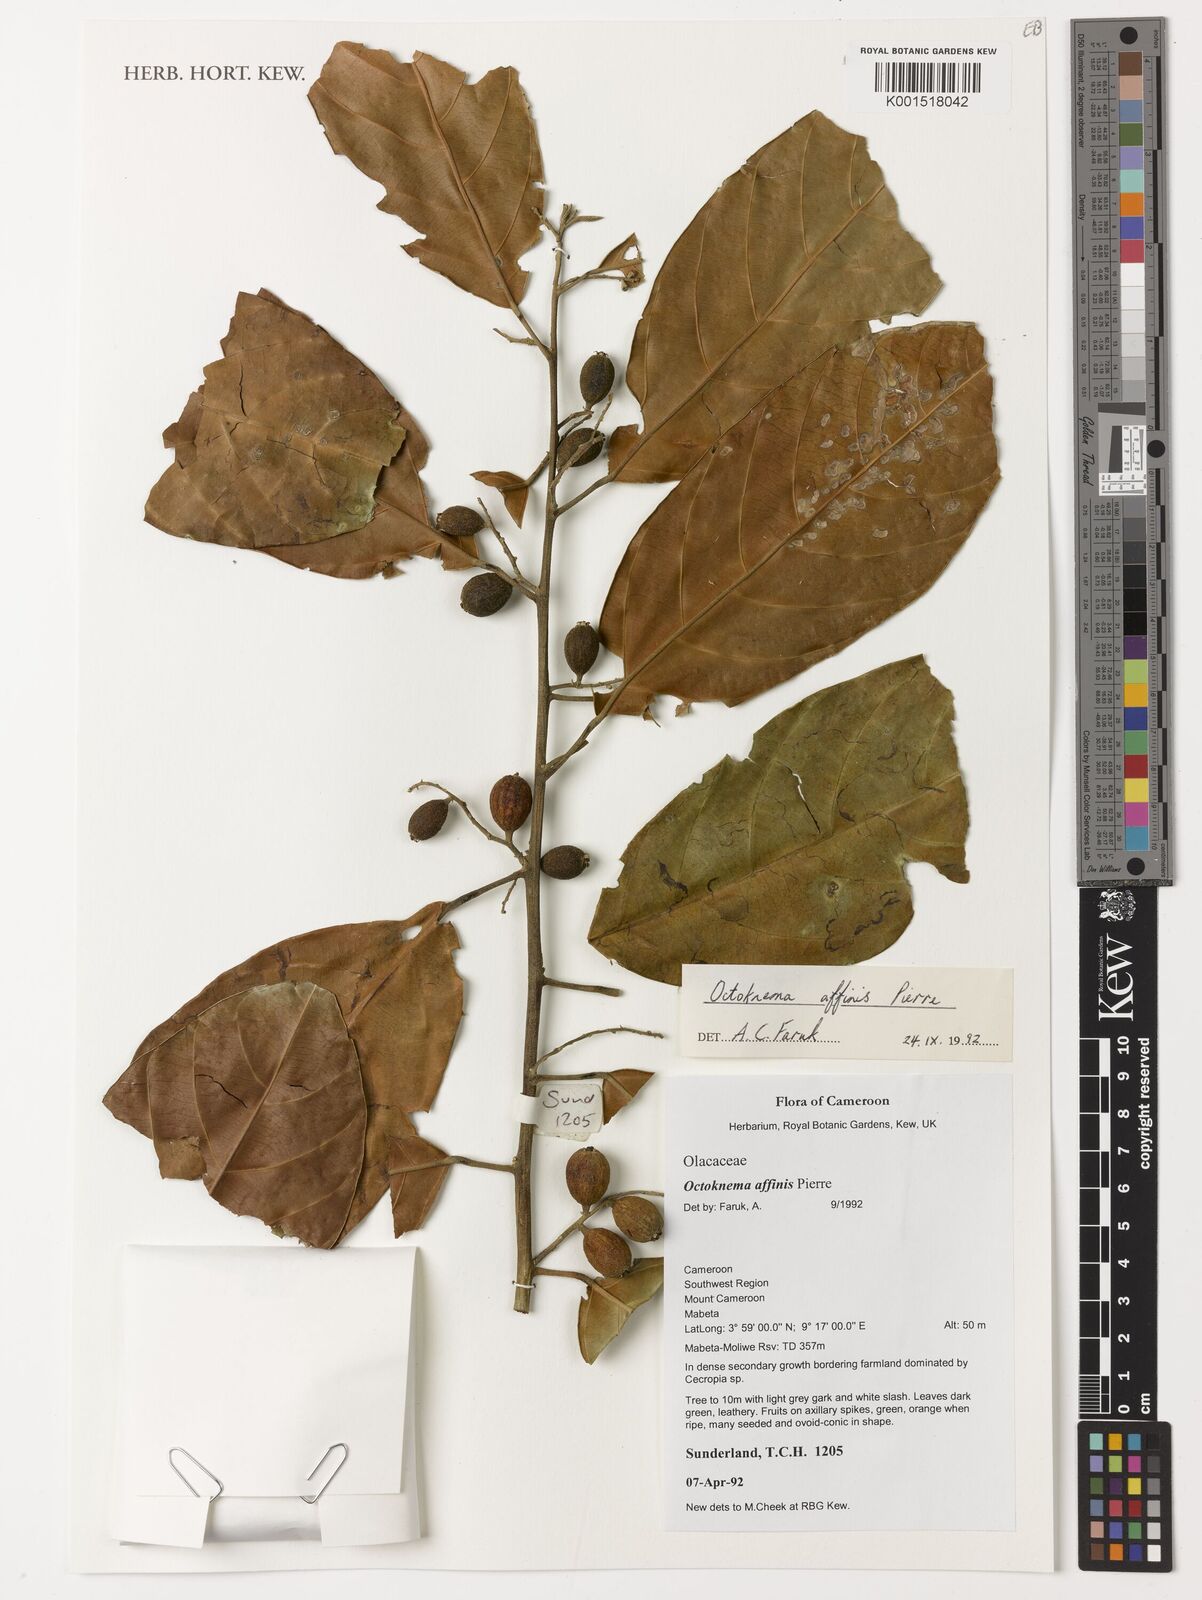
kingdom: Plantae
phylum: Tracheophyta
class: Magnoliopsida
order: Santalales
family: Octoknemaceae
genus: Octoknema
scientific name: Octoknema affinis
